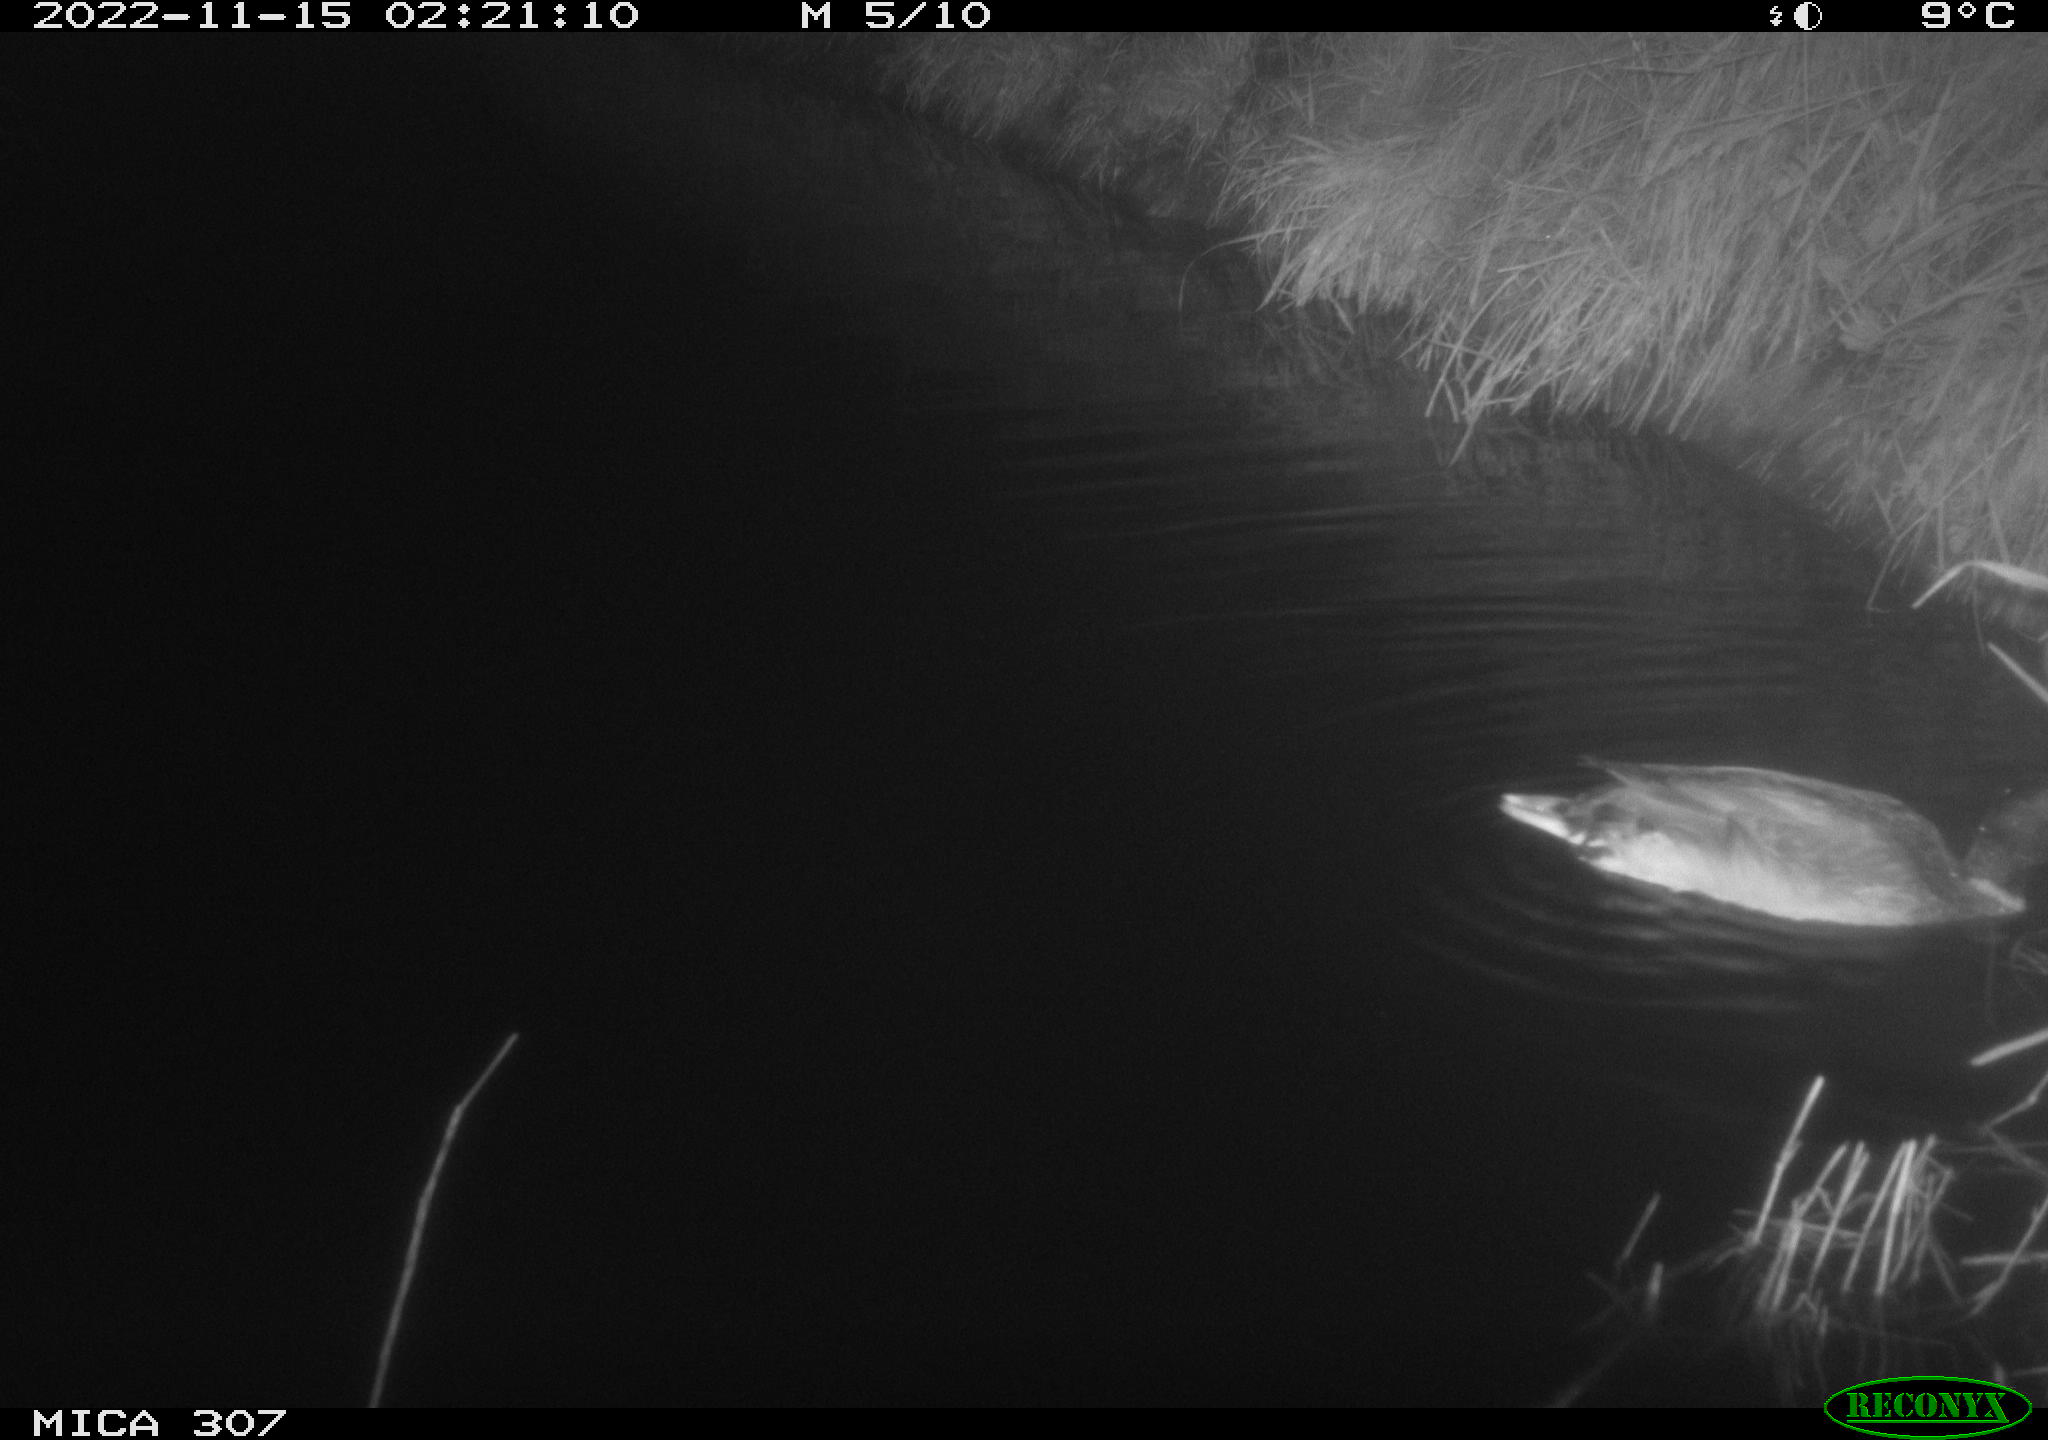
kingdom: Animalia
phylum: Chordata
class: Aves
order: Anseriformes
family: Anatidae
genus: Anas
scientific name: Anas
